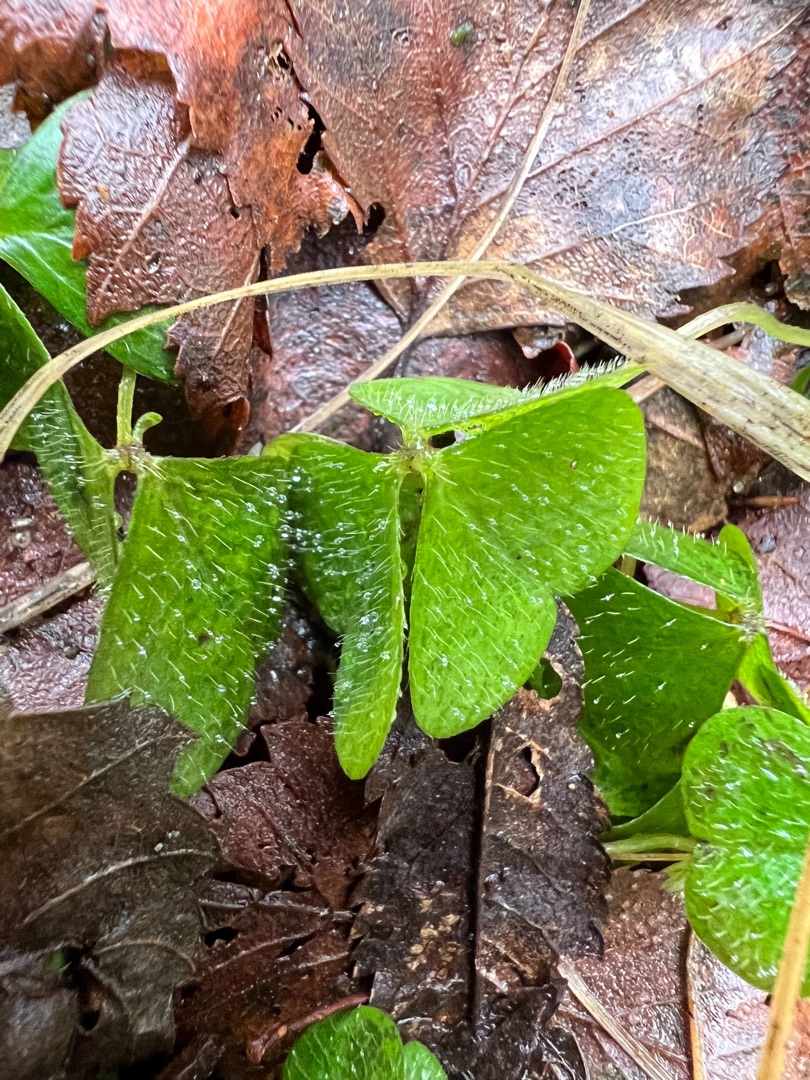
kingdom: Plantae
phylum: Tracheophyta
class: Magnoliopsida
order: Oxalidales
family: Oxalidaceae
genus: Oxalis
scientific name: Oxalis acetosella
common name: Skovsyre
